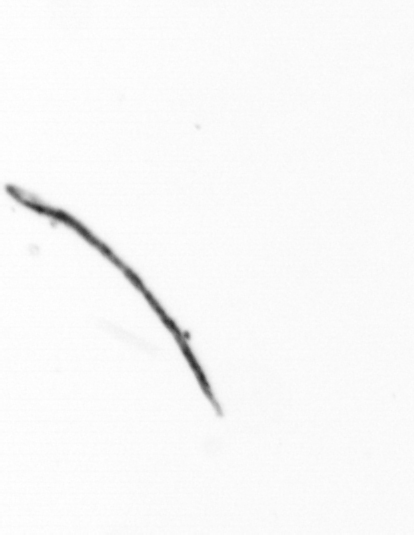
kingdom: Bacteria
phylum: Cyanobacteria
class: Cyanobacteriia
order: Cyanobacteriales
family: Microcoleaceae
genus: Trichodesmium
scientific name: Trichodesmium
